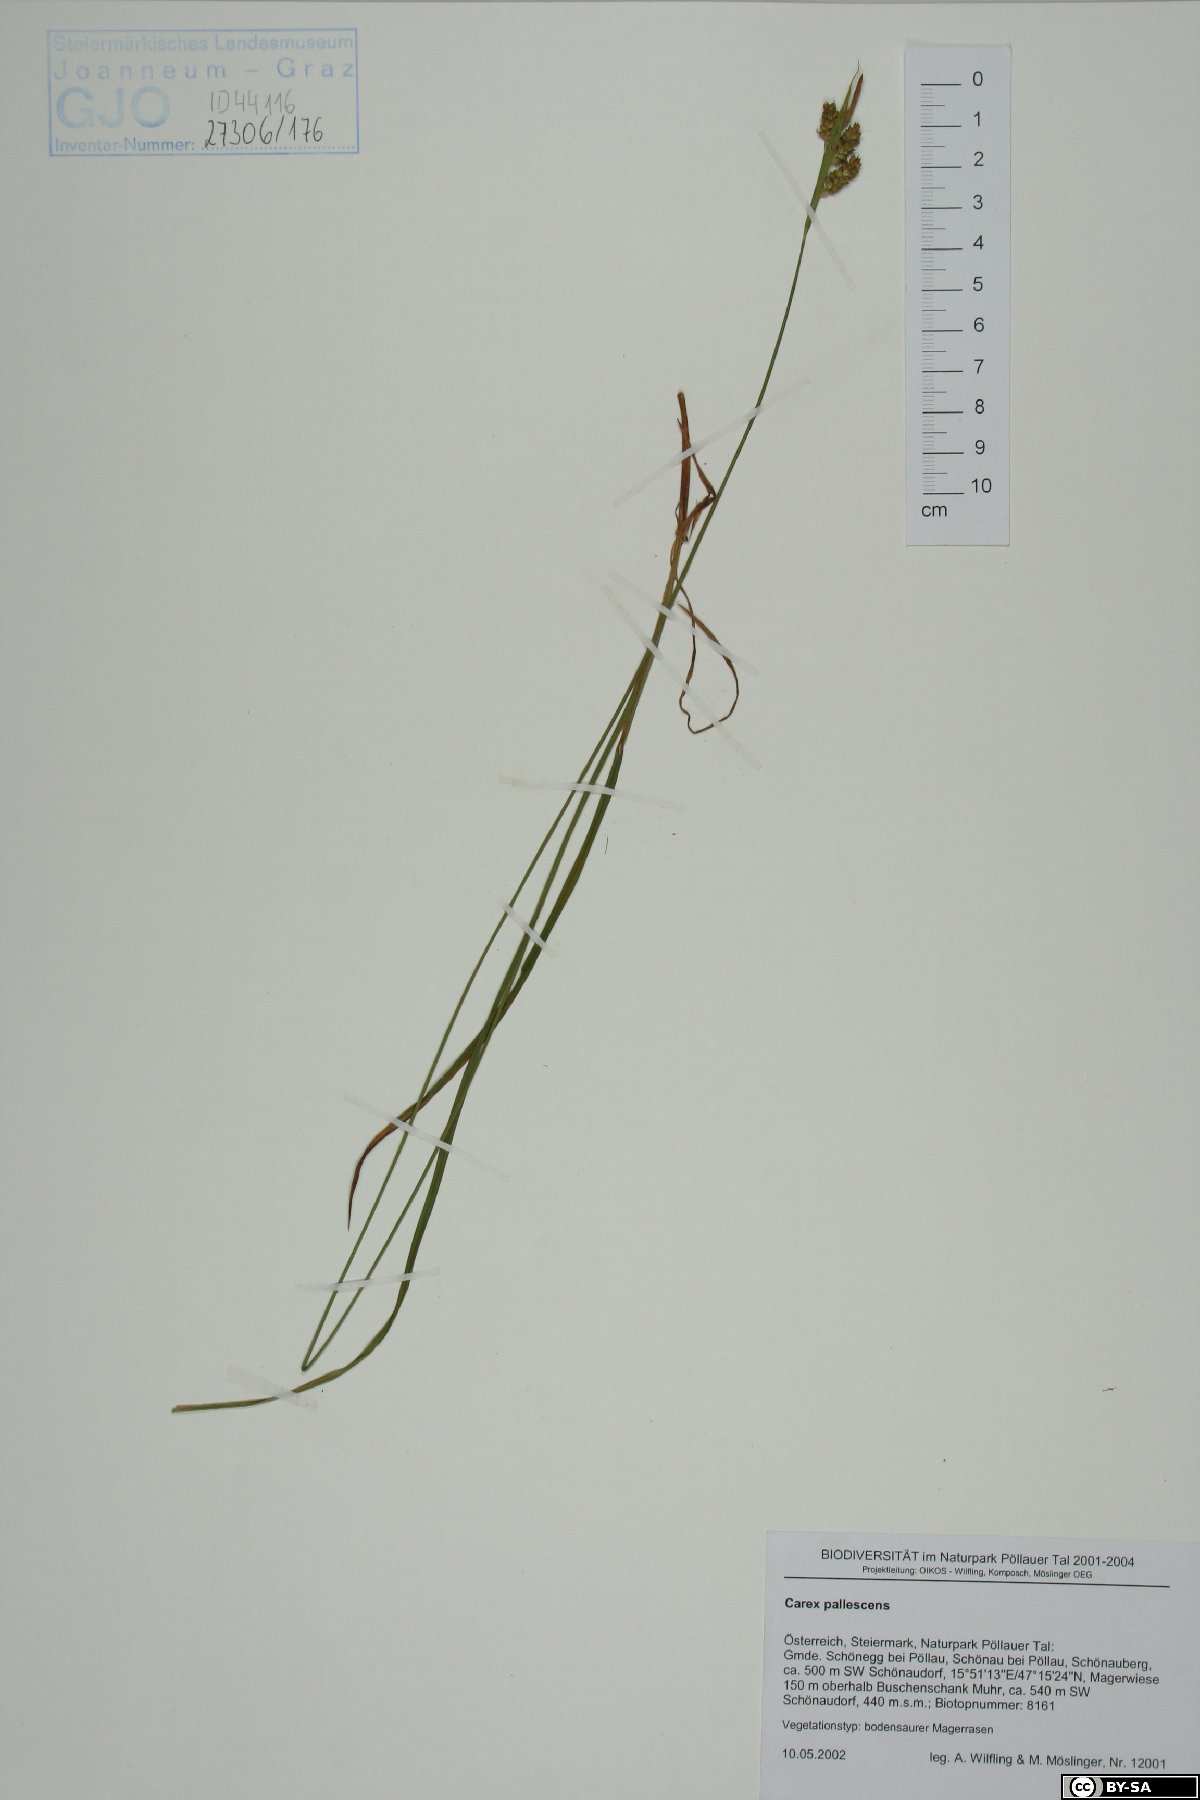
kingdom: Plantae
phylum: Tracheophyta
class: Liliopsida
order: Poales
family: Cyperaceae
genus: Carex
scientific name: Carex pallescens
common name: Pale sedge
